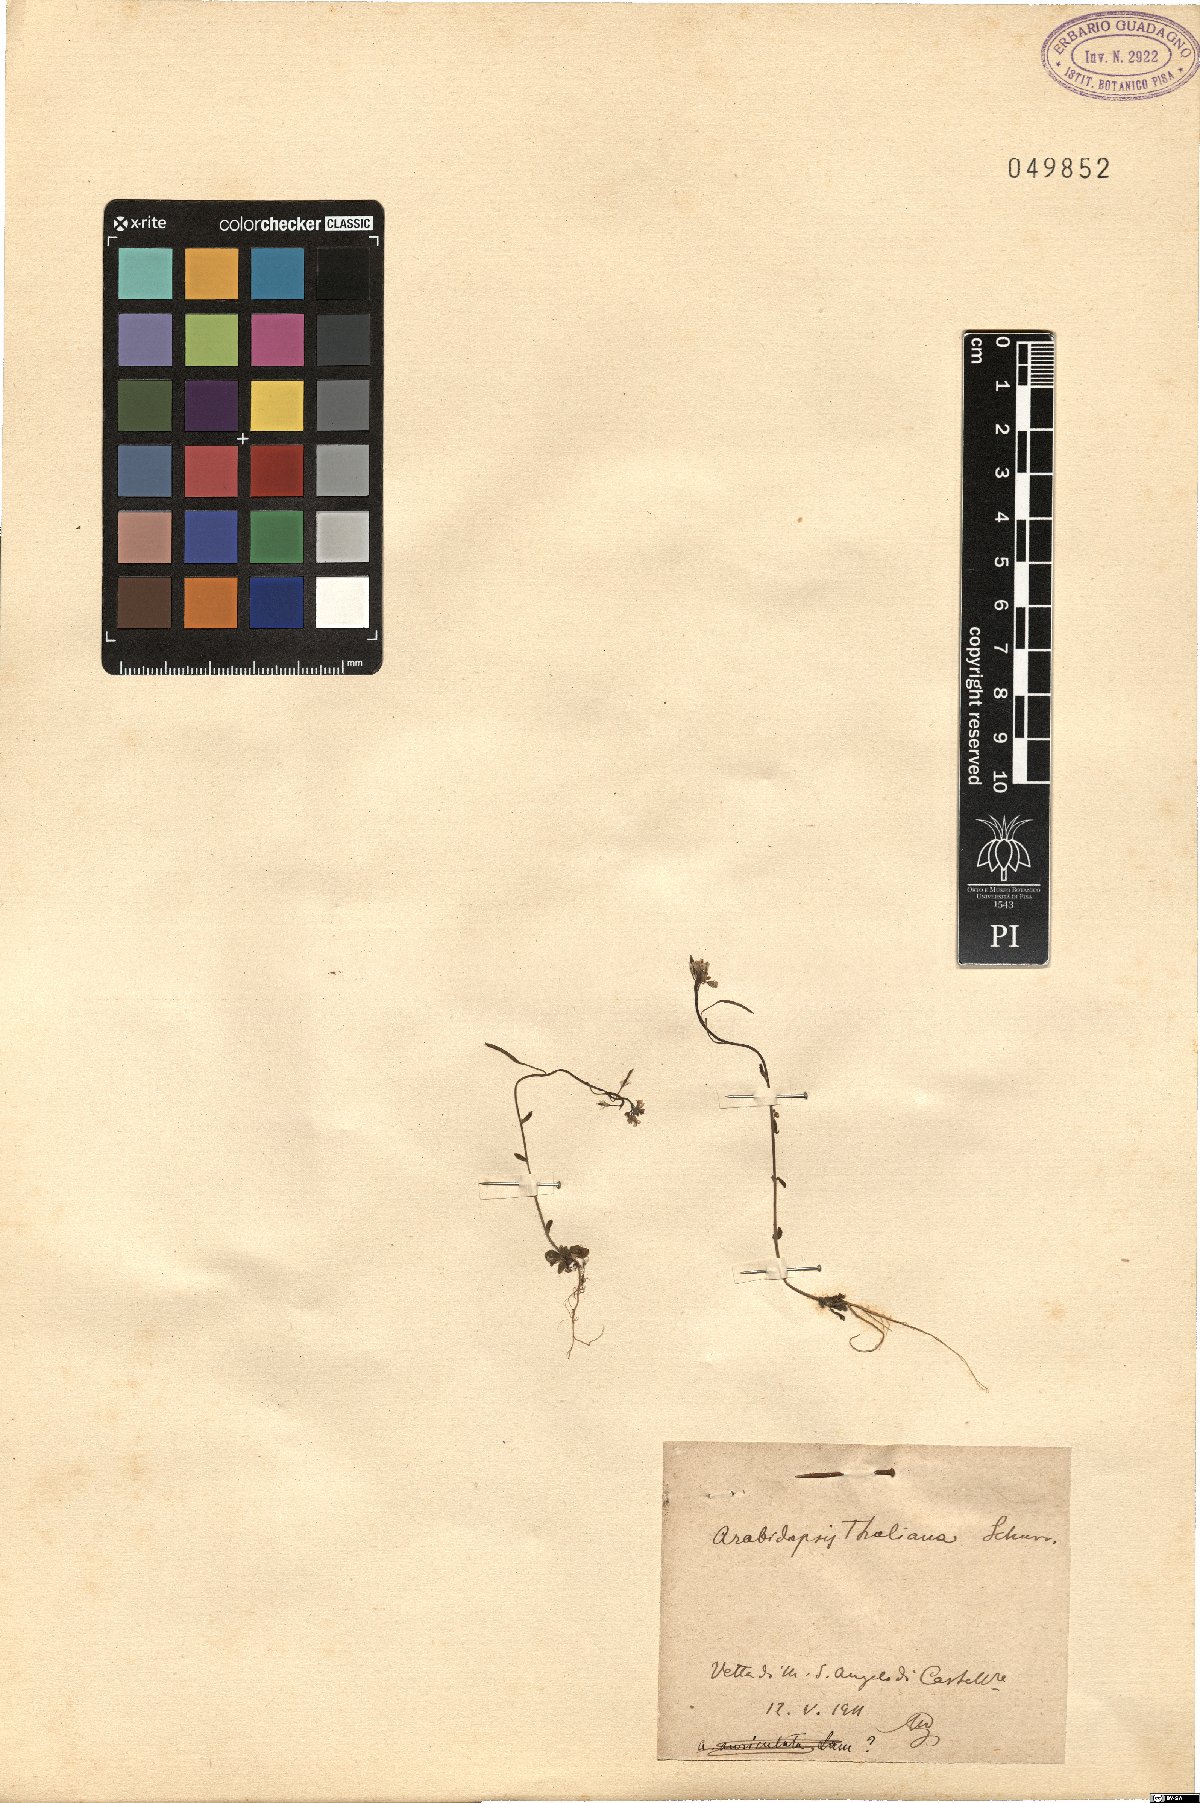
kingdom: Plantae
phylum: Tracheophyta
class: Magnoliopsida
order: Brassicales
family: Brassicaceae
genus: Arabidopsis
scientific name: Arabidopsis thaliana
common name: Thale cress
